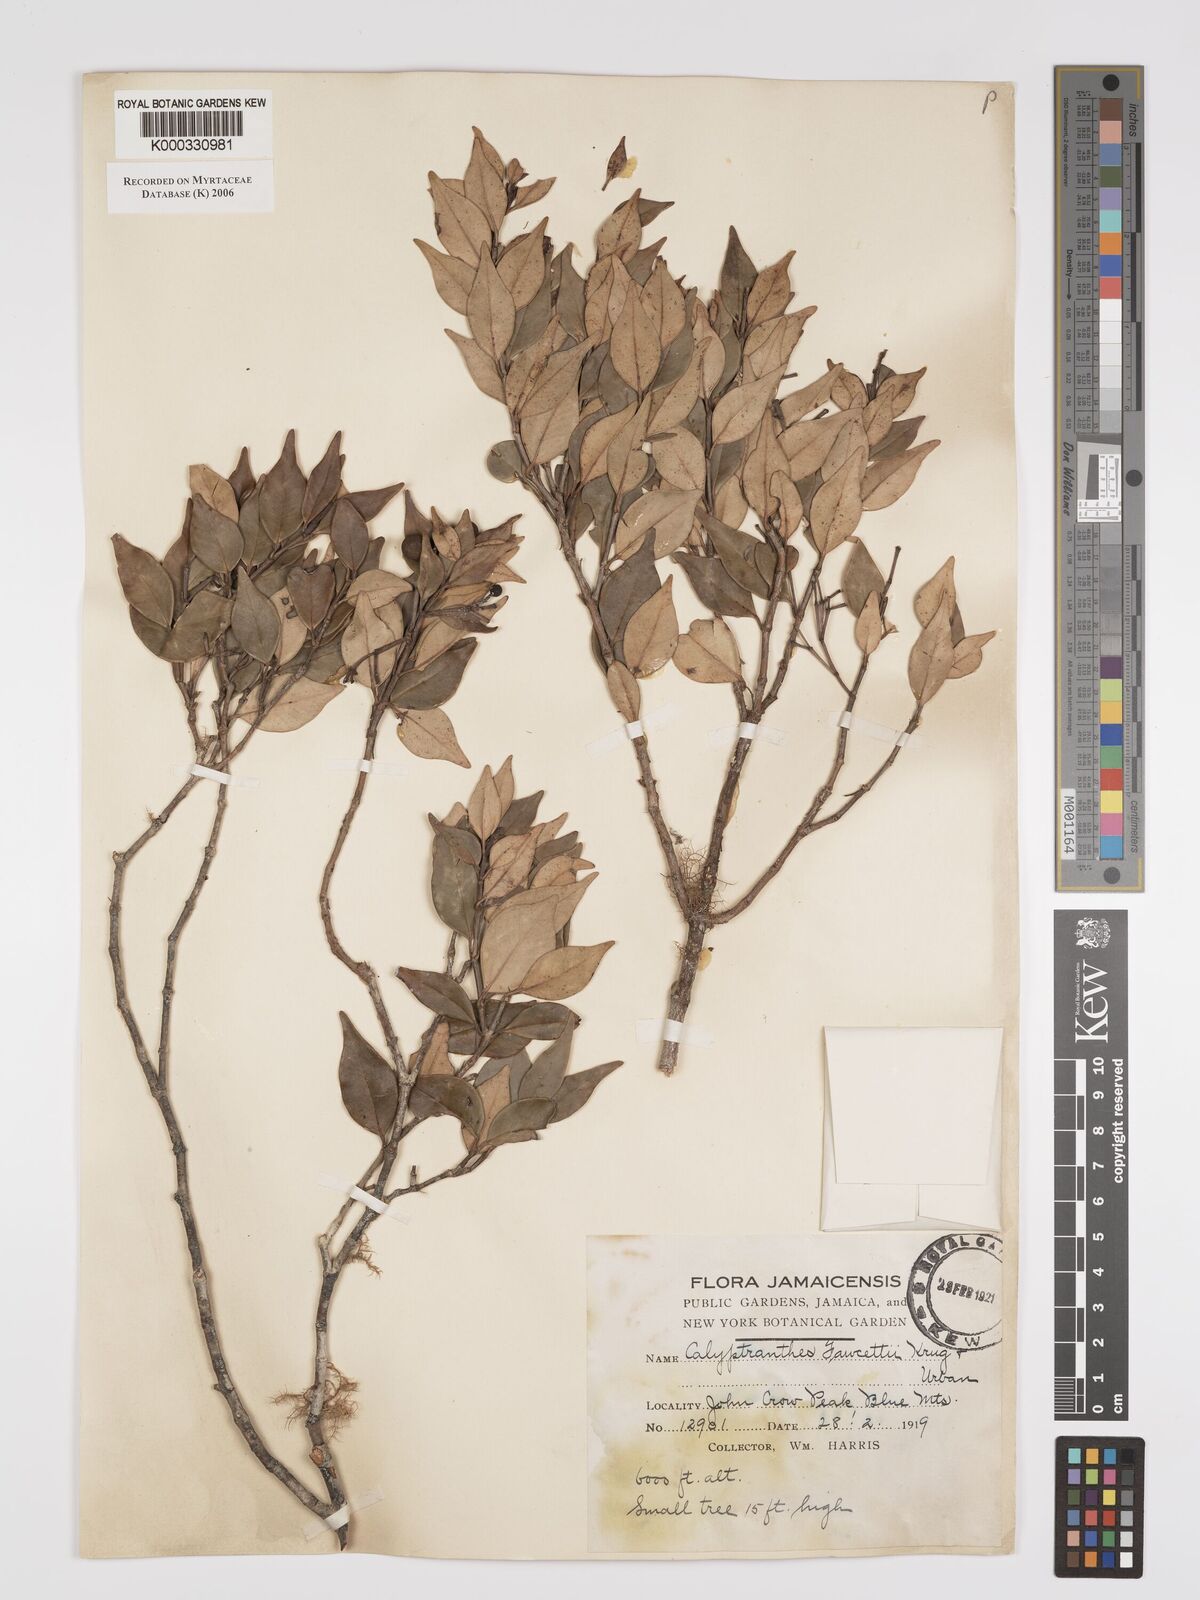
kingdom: Plantae
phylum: Tracheophyta
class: Magnoliopsida
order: Myrtales
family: Myrtaceae
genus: Myrcia
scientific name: Myrcia rigida
